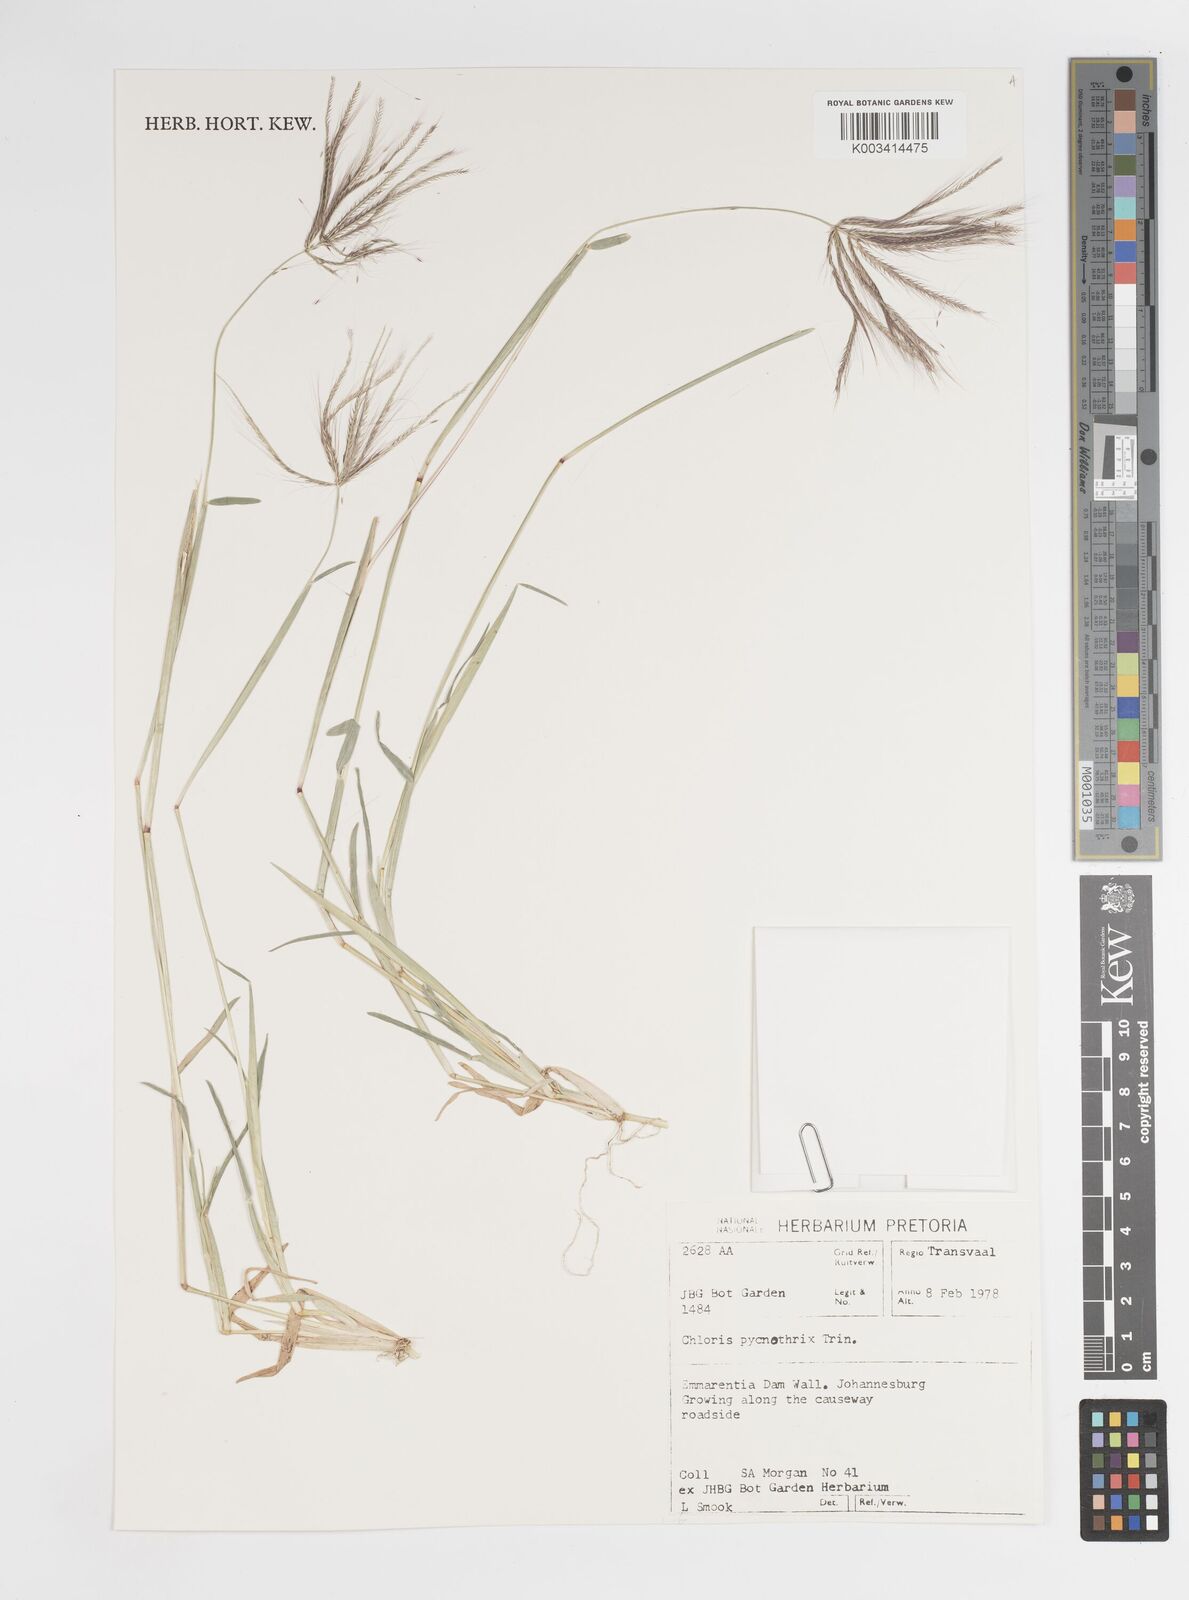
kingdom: Plantae
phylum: Tracheophyta
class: Liliopsida
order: Poales
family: Poaceae
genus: Chloris
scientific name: Chloris pycnothrix
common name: Spiderweb chloris
